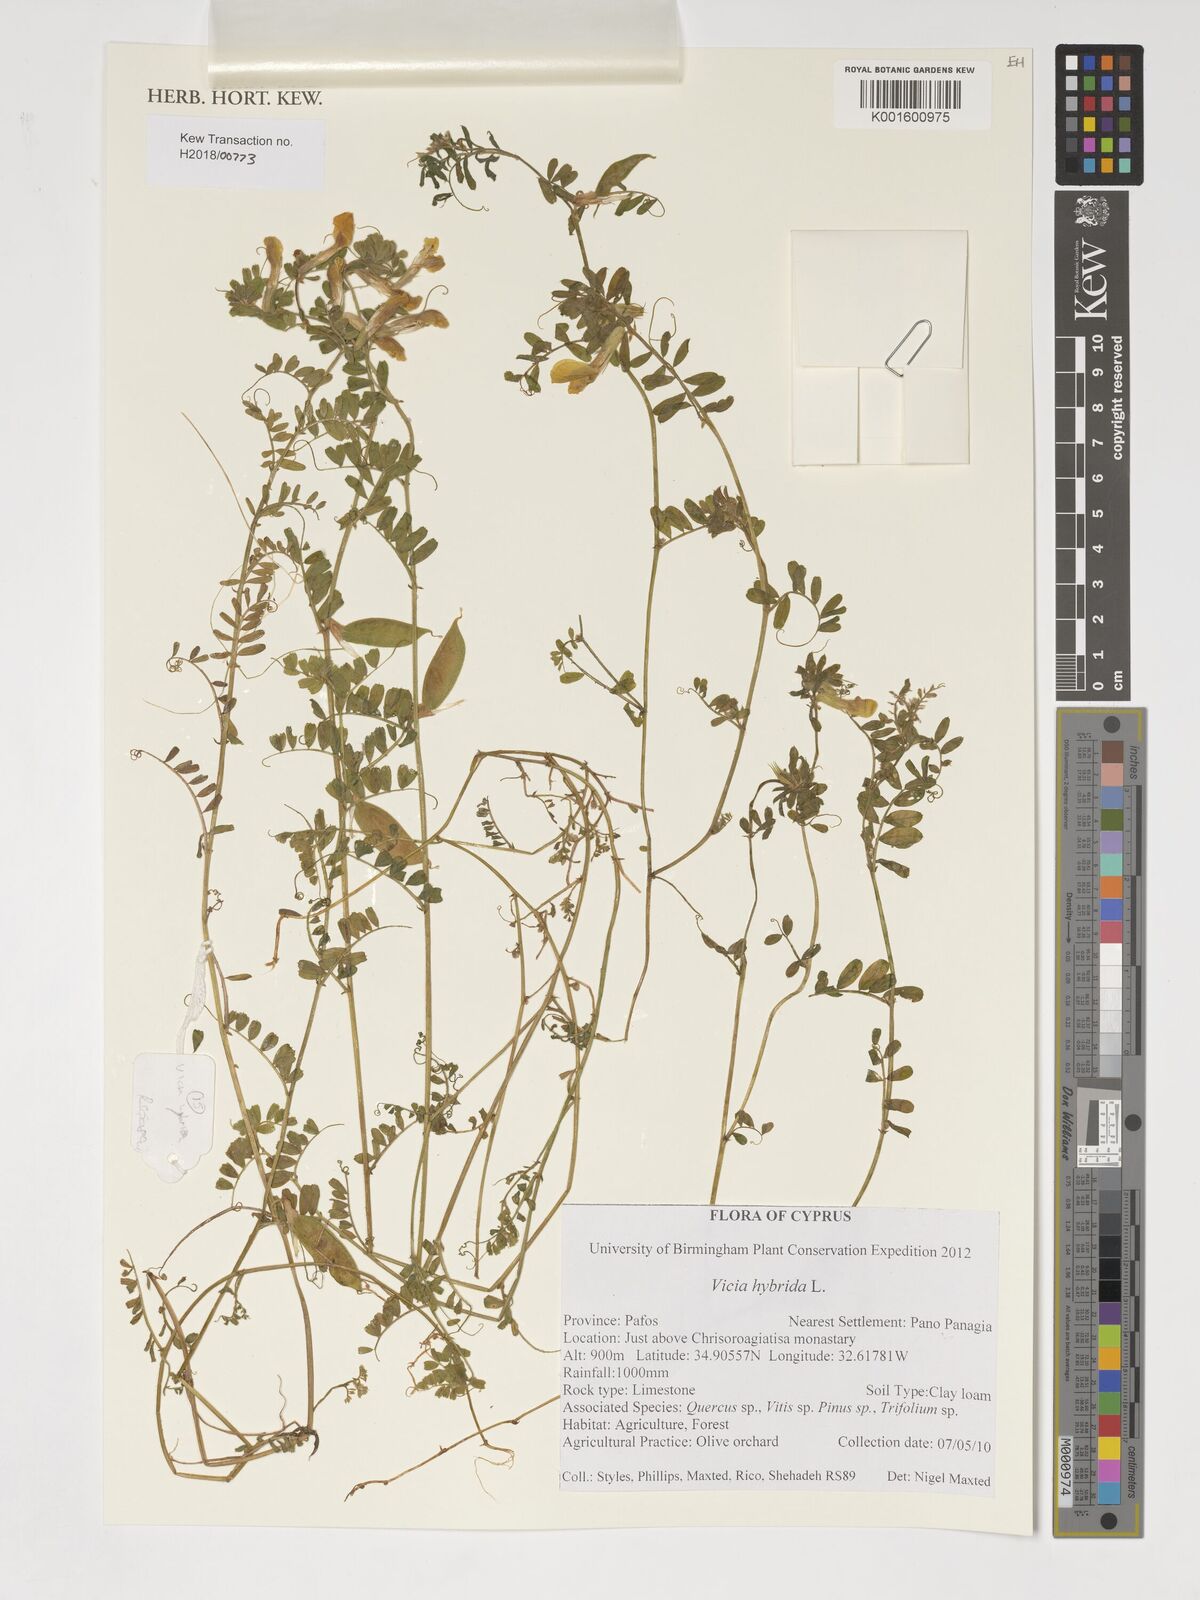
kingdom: Plantae
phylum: Tracheophyta
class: Magnoliopsida
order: Fabales
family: Fabaceae
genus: Vicia
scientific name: Vicia hybrida
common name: Hairy yellow vetch
